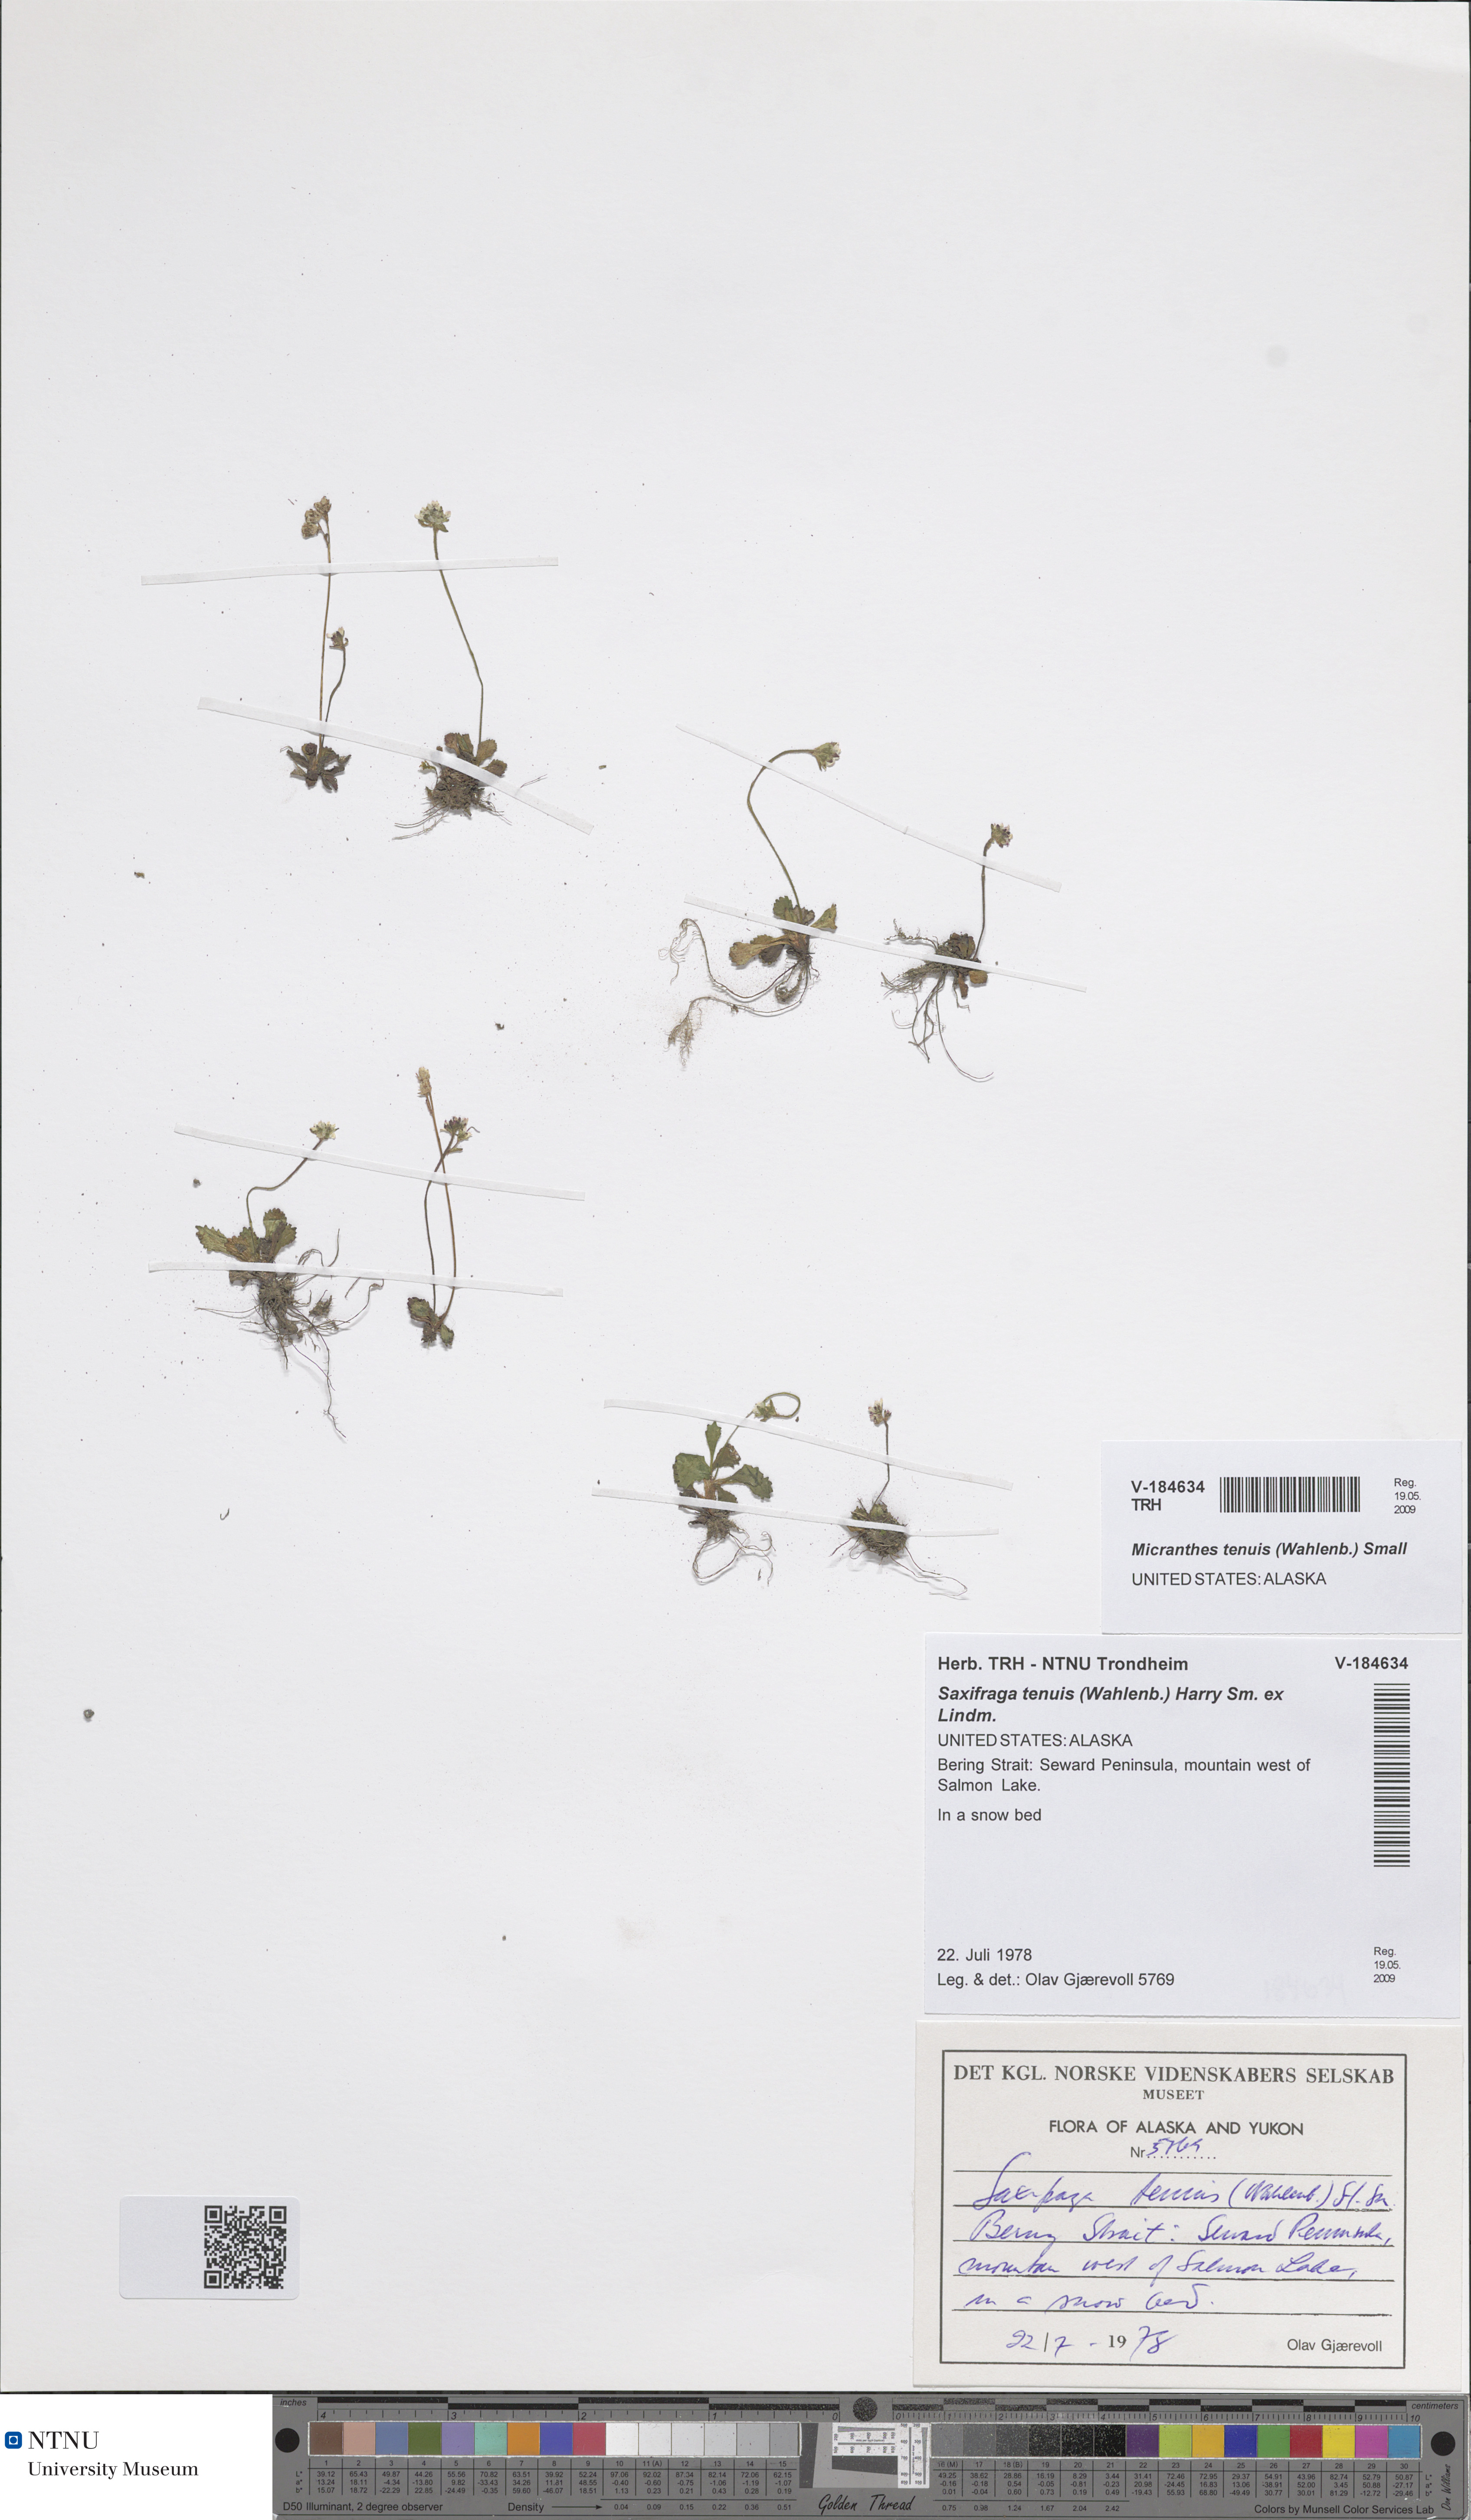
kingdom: Plantae
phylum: Tracheophyta
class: Magnoliopsida
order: Saxifragales
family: Saxifragaceae
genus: Micranthes
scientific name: Micranthes tenuis
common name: Ottertail pass saxifrage
